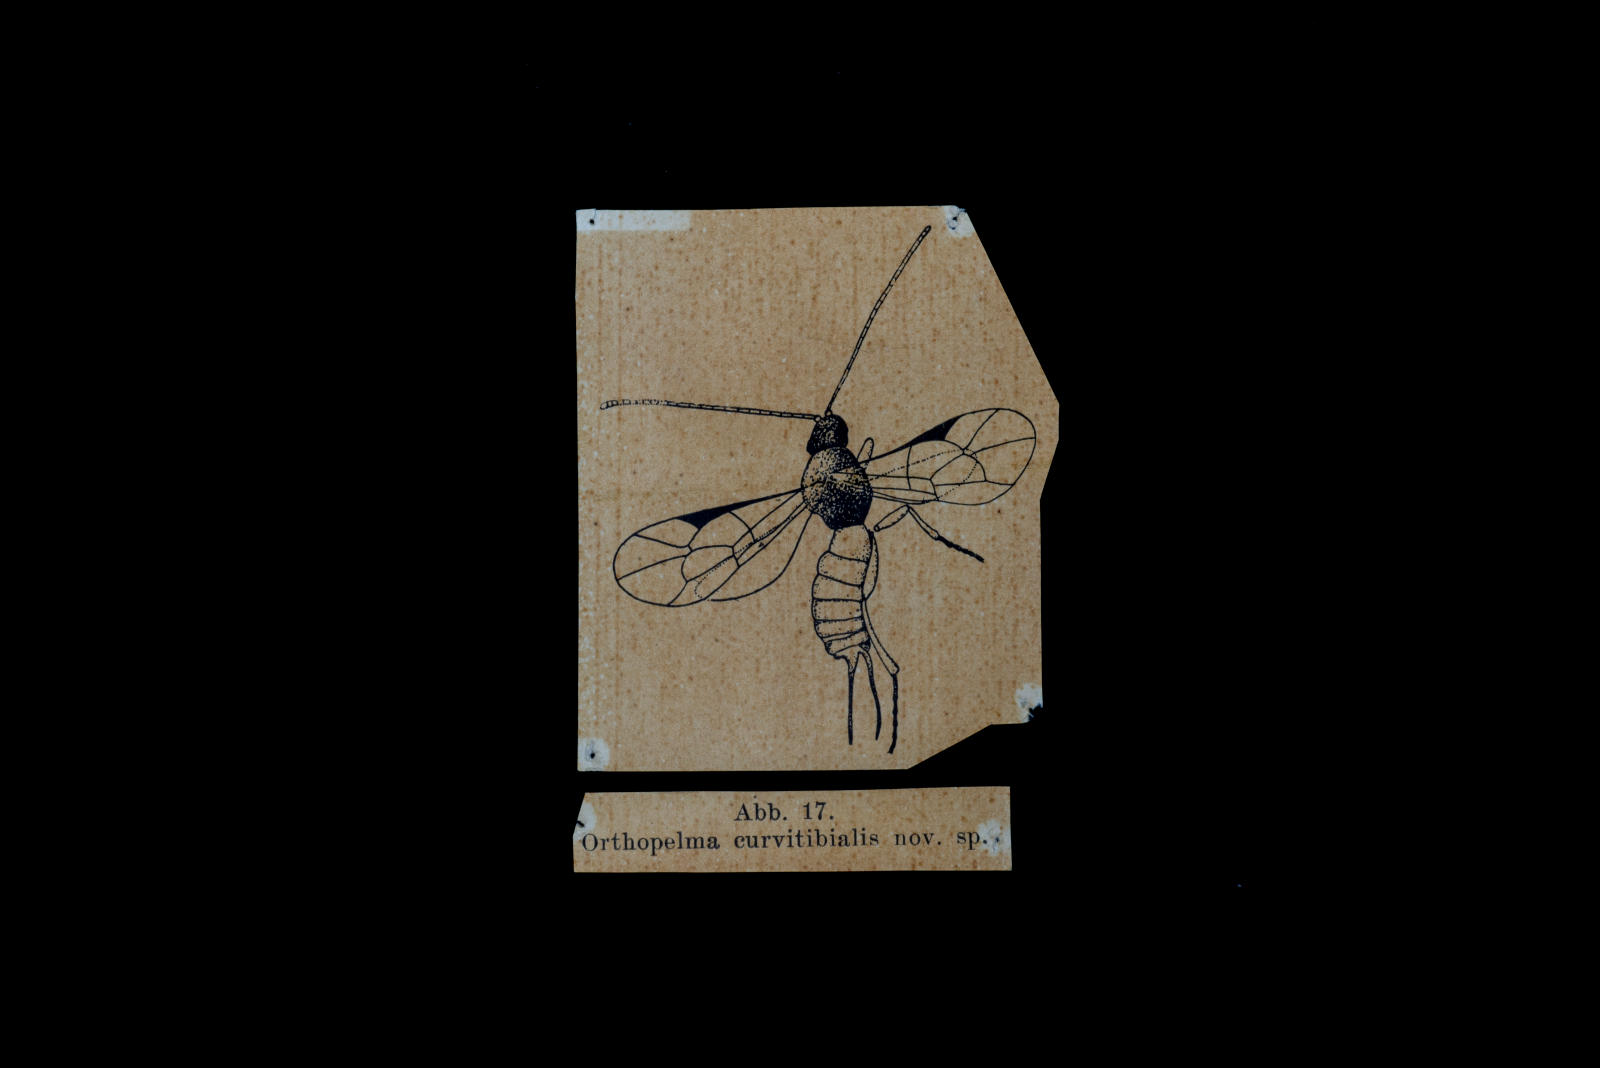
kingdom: Animalia
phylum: Arthropoda
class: Insecta
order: Hymenoptera
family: Ichneumonidae
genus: Orthopelma
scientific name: Orthopelma curvitibialis
